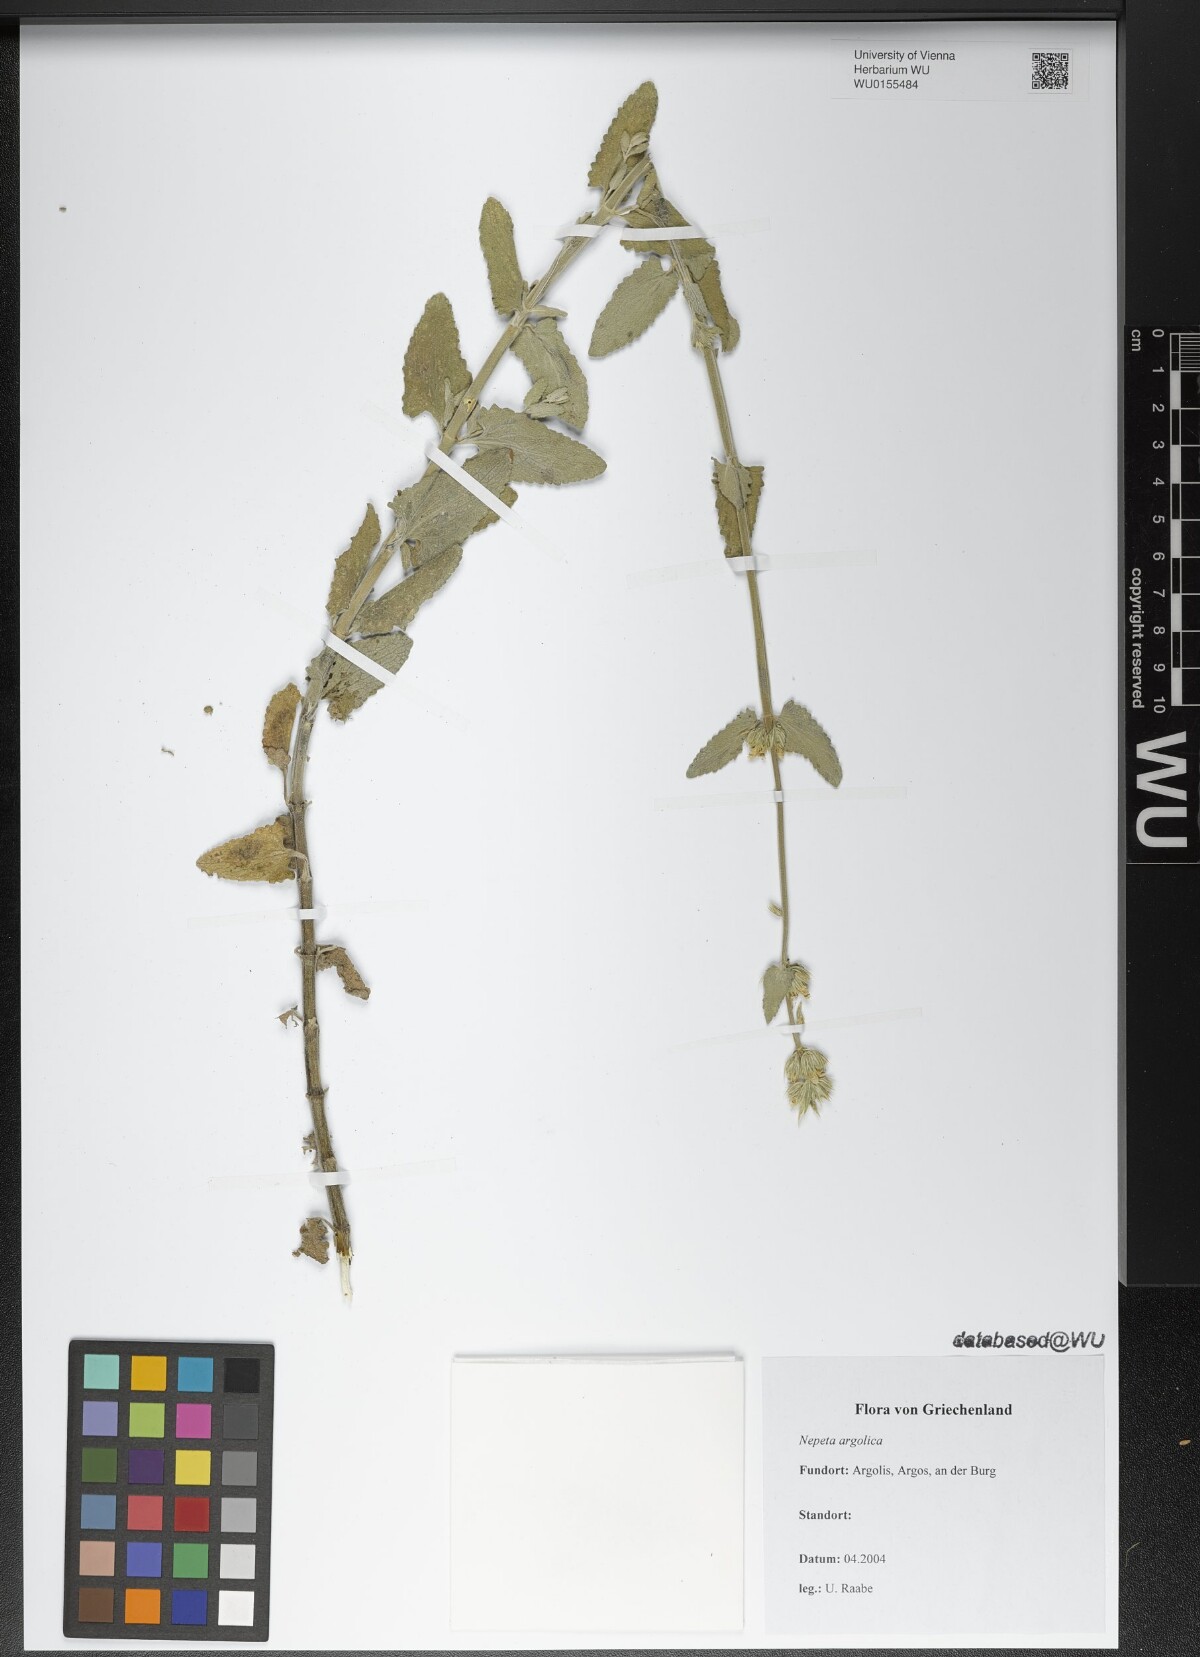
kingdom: Plantae
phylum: Tracheophyta
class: Magnoliopsida
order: Lamiales
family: Lamiaceae
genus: Nepeta
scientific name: Nepeta argolica
